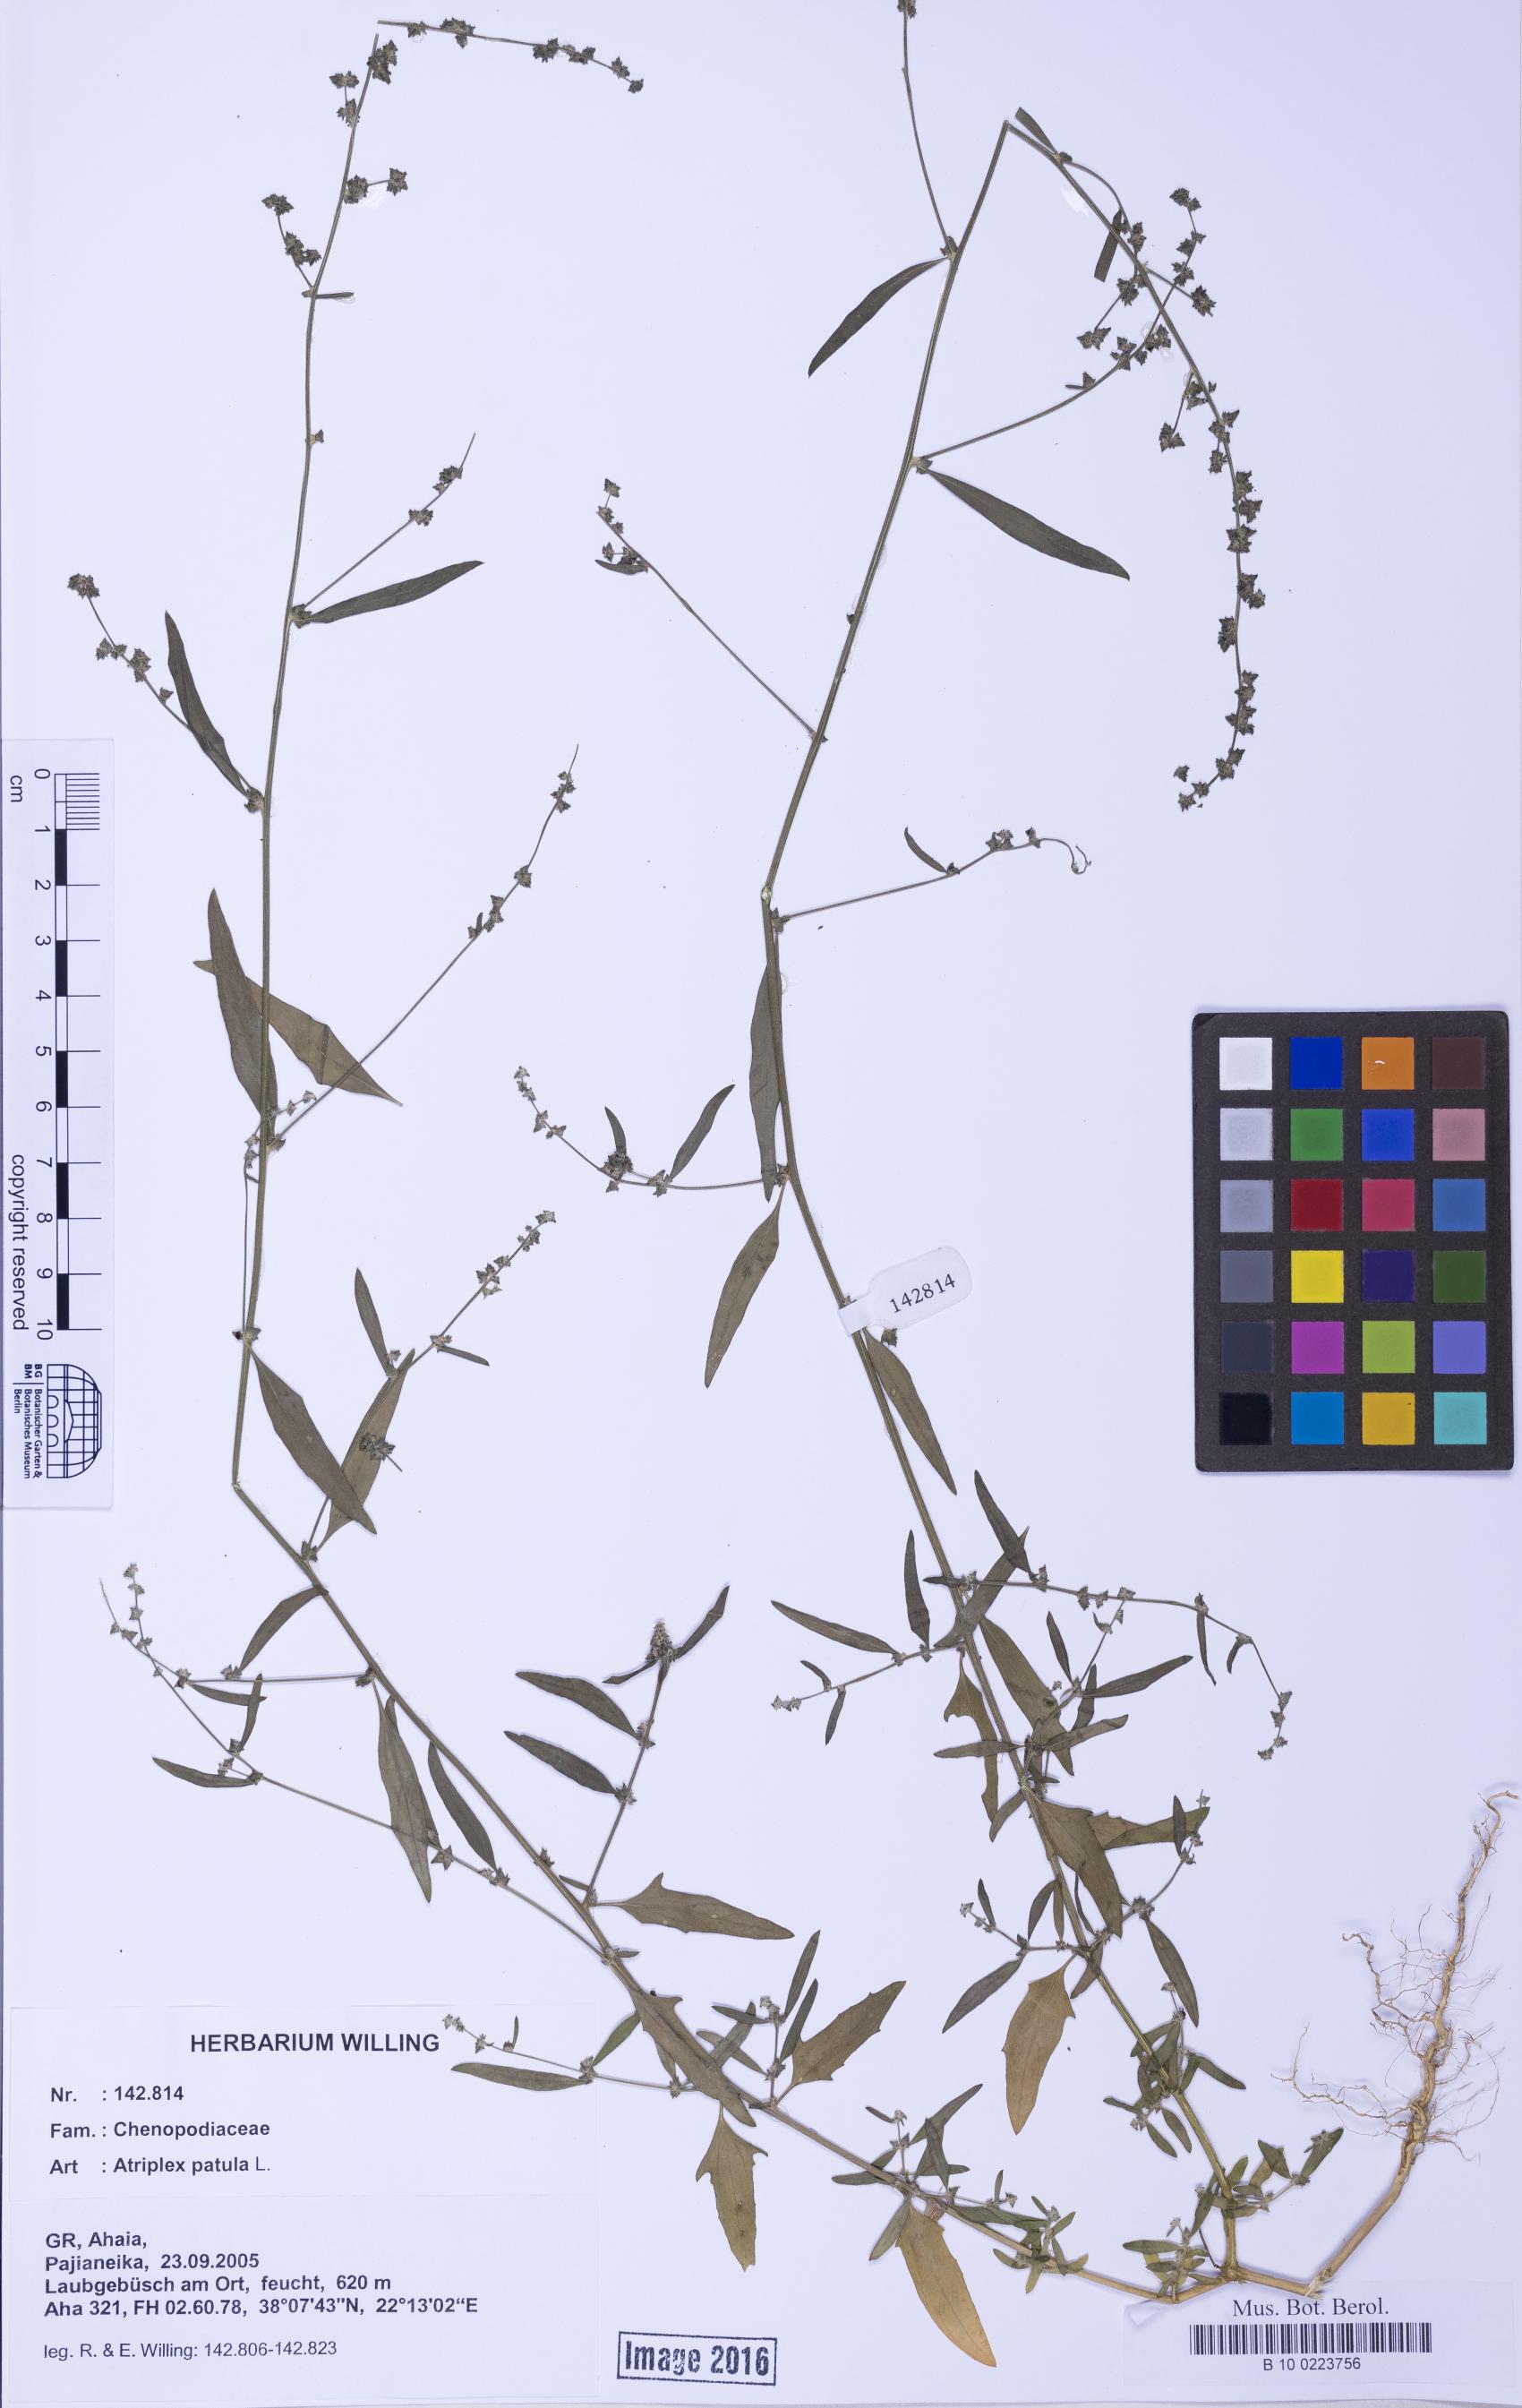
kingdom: Plantae
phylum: Tracheophyta
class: Magnoliopsida
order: Caryophyllales
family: Amaranthaceae
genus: Atriplex
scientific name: Atriplex patula
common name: Common orache
